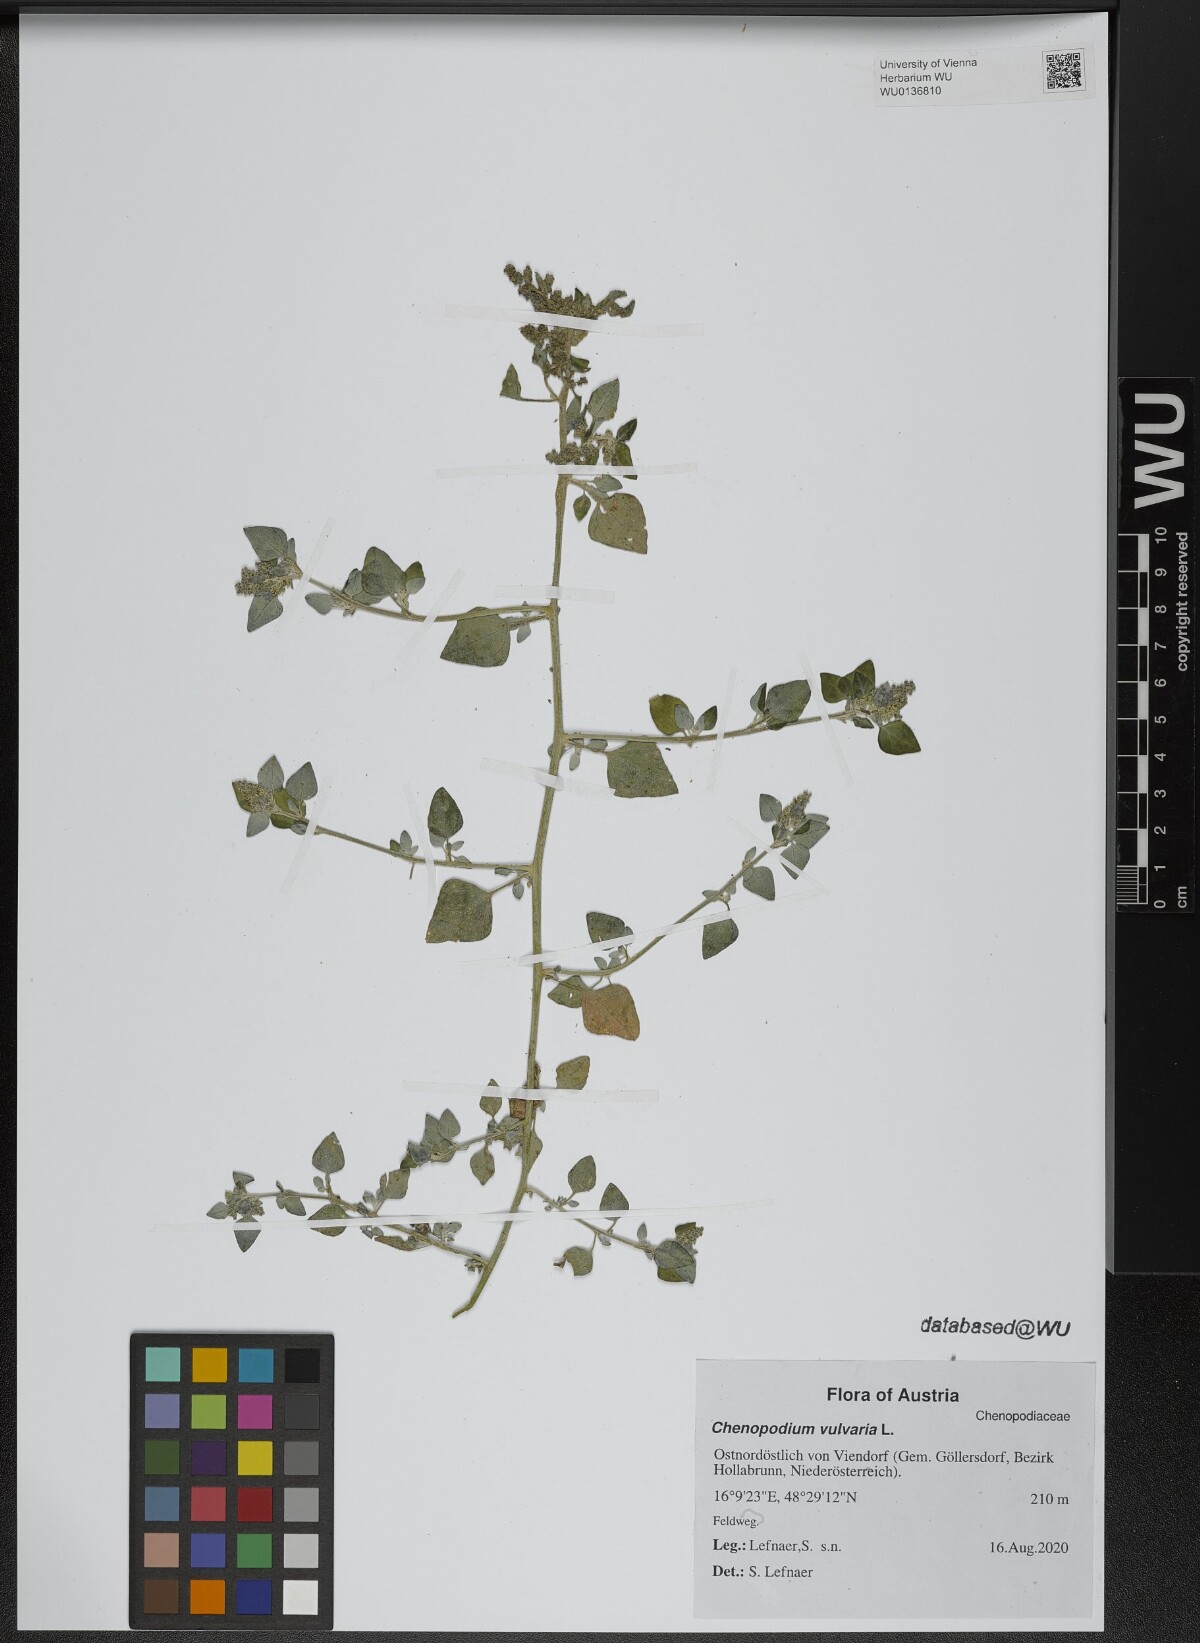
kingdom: Plantae
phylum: Tracheophyta
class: Magnoliopsida
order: Caryophyllales
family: Amaranthaceae
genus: Chenopodium
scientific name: Chenopodium vulvaria
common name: Stinking goosefoot
